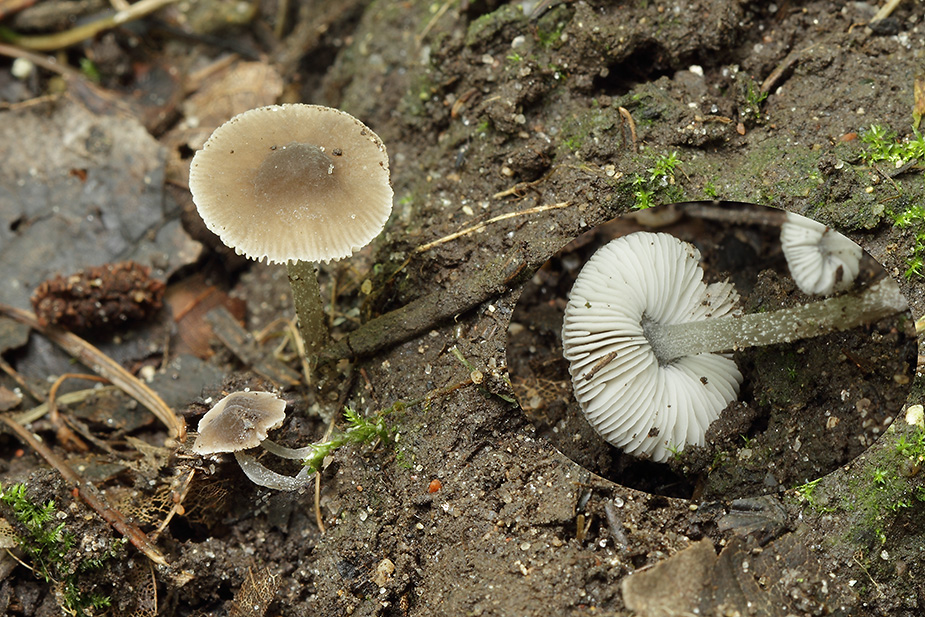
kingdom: Fungi
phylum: Basidiomycota
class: Agaricomycetes
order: Agaricales
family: Pluteaceae
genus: Pluteus
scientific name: Pluteus
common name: gråstokket skærmhat
